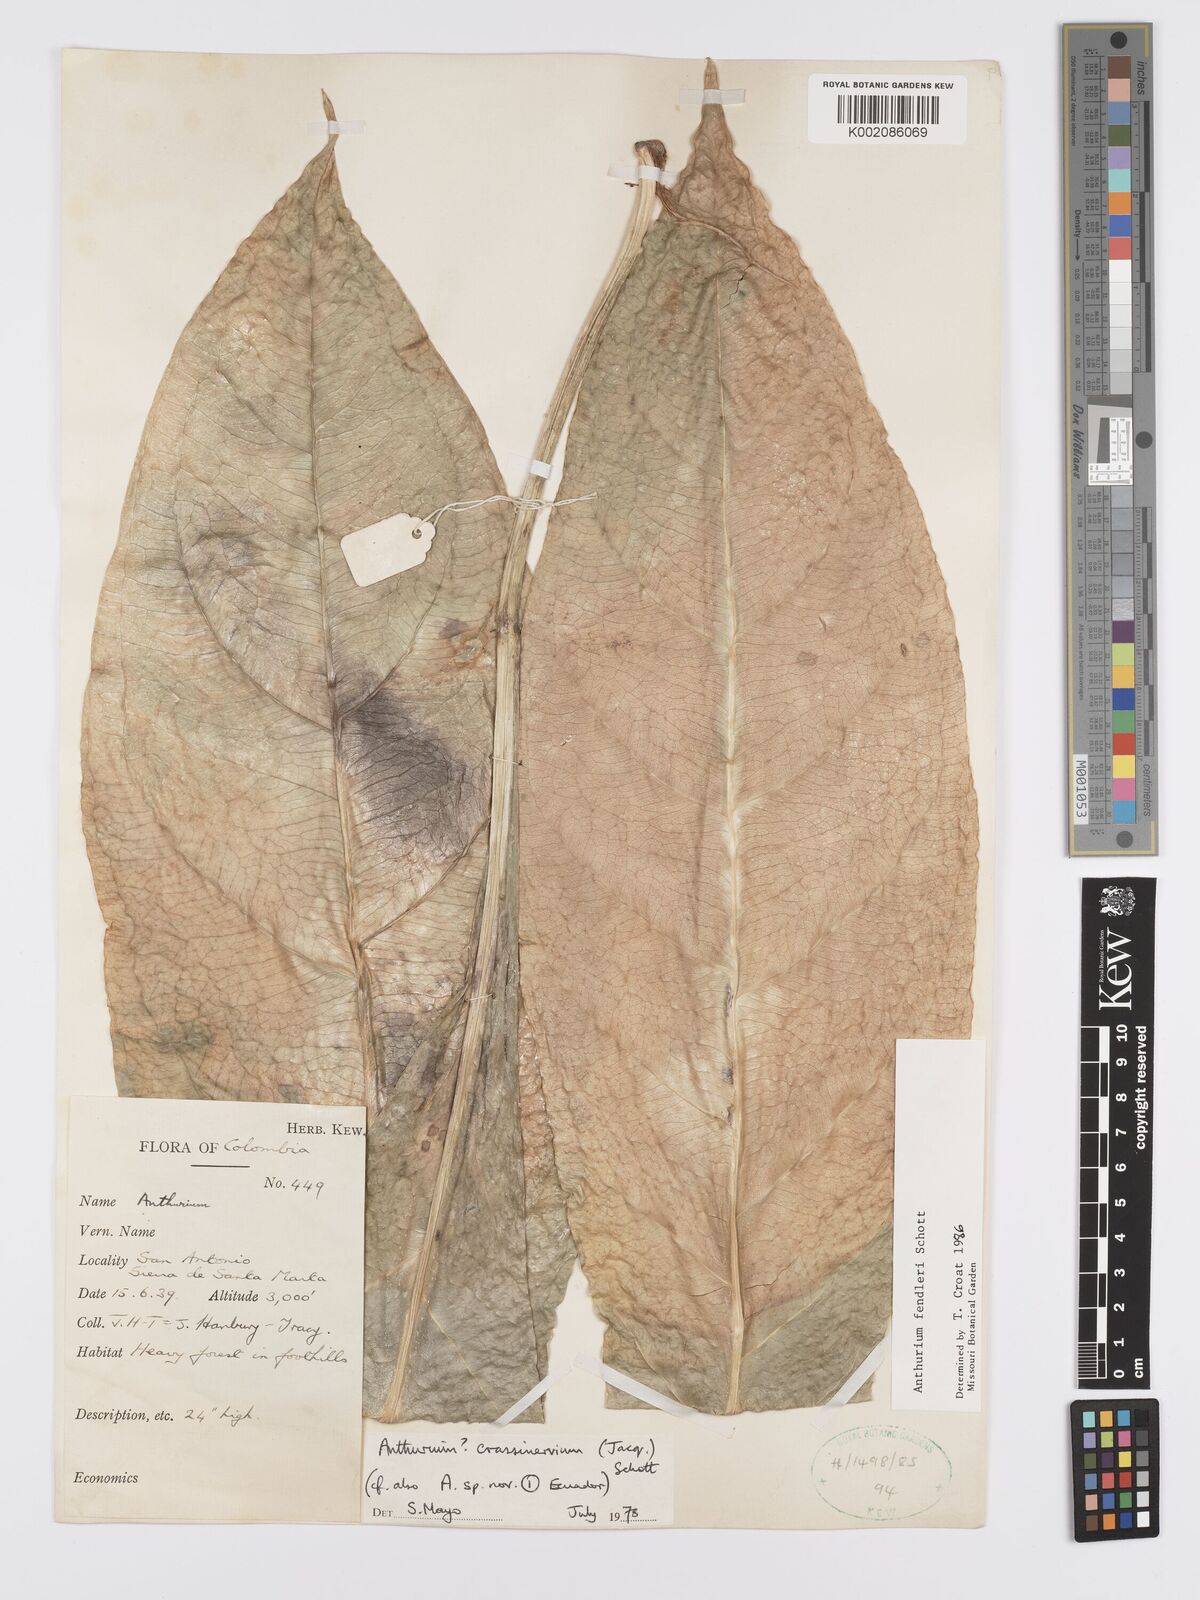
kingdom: Plantae
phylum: Tracheophyta
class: Liliopsida
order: Alismatales
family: Araceae
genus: Anthurium
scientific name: Anthurium fendleri
